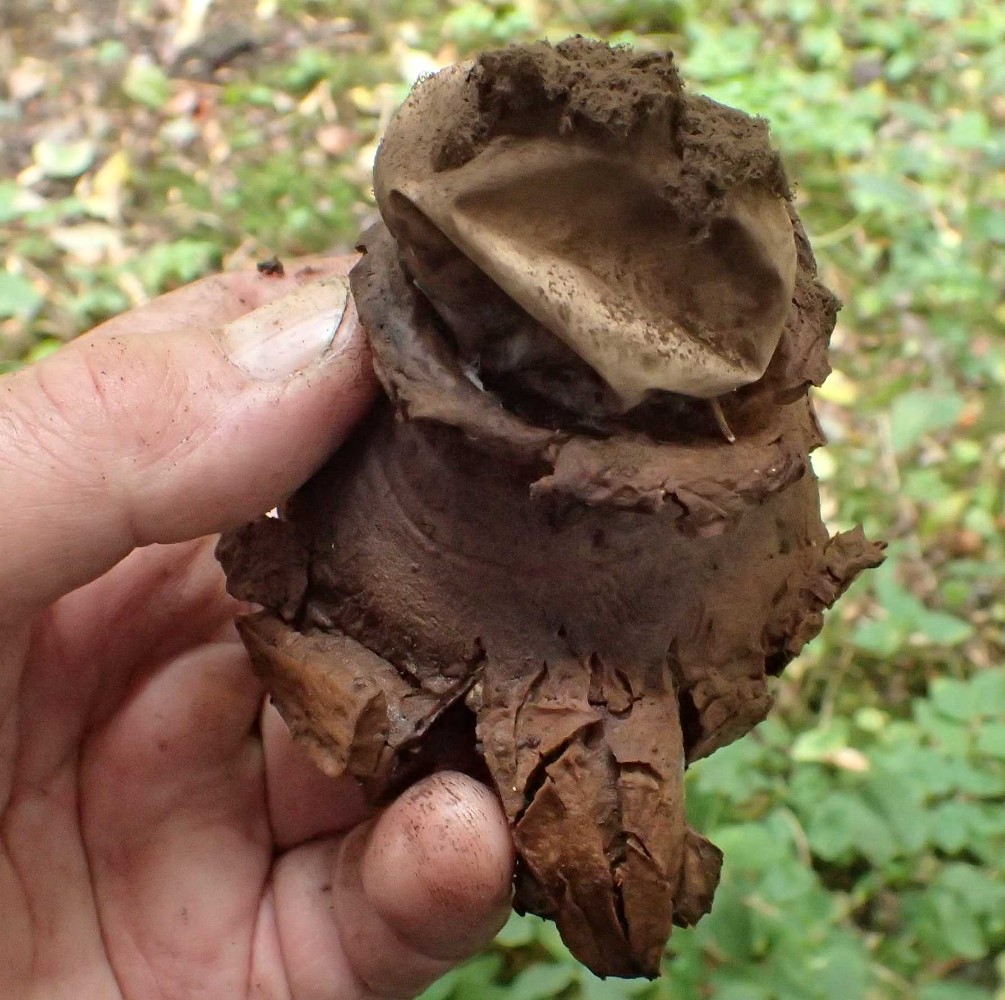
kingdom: Fungi
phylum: Basidiomycota
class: Agaricomycetes
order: Geastrales
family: Geastraceae
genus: Geastrum
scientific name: Geastrum michelianum
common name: kødet stjernebold
